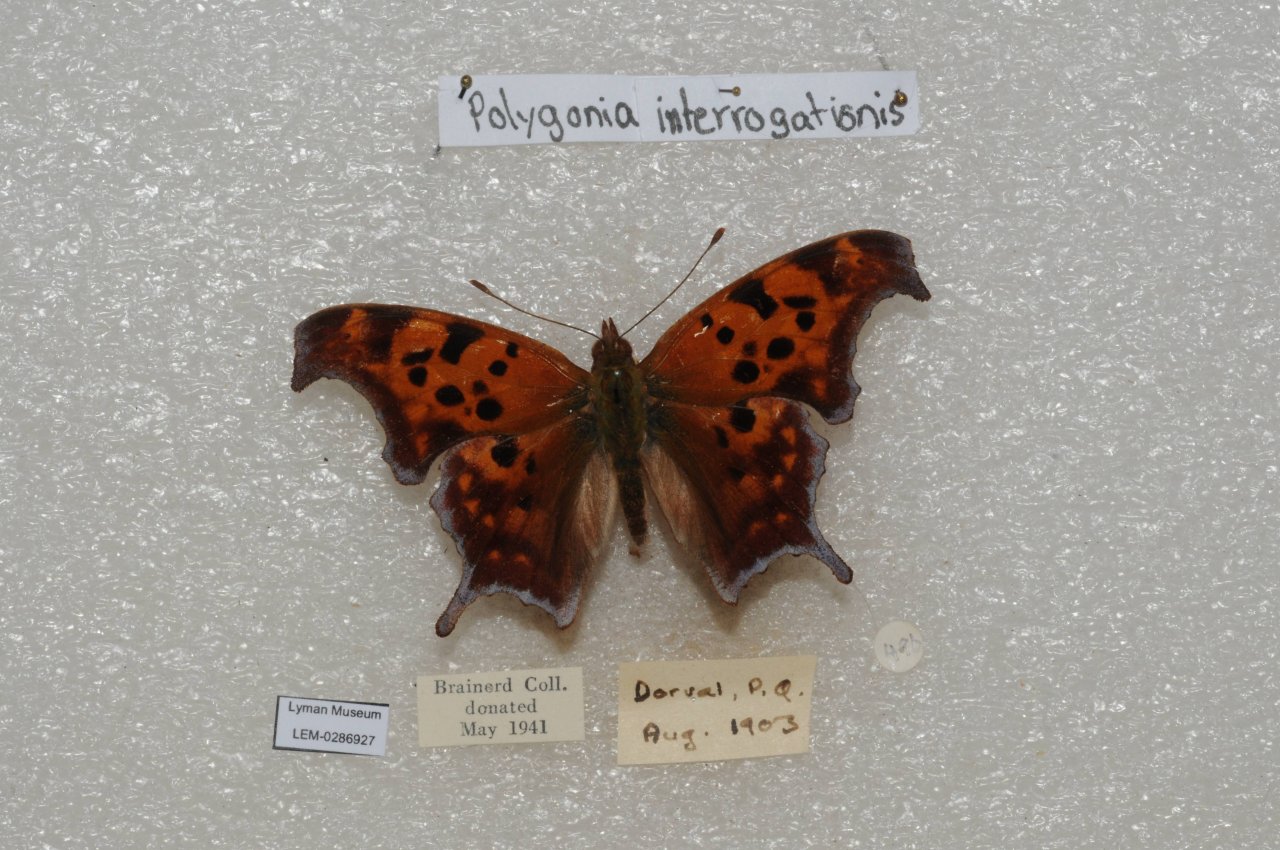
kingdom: Animalia
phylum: Arthropoda
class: Insecta
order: Lepidoptera
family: Nymphalidae
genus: Polygonia
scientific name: Polygonia interrogationis
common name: Question Mark
